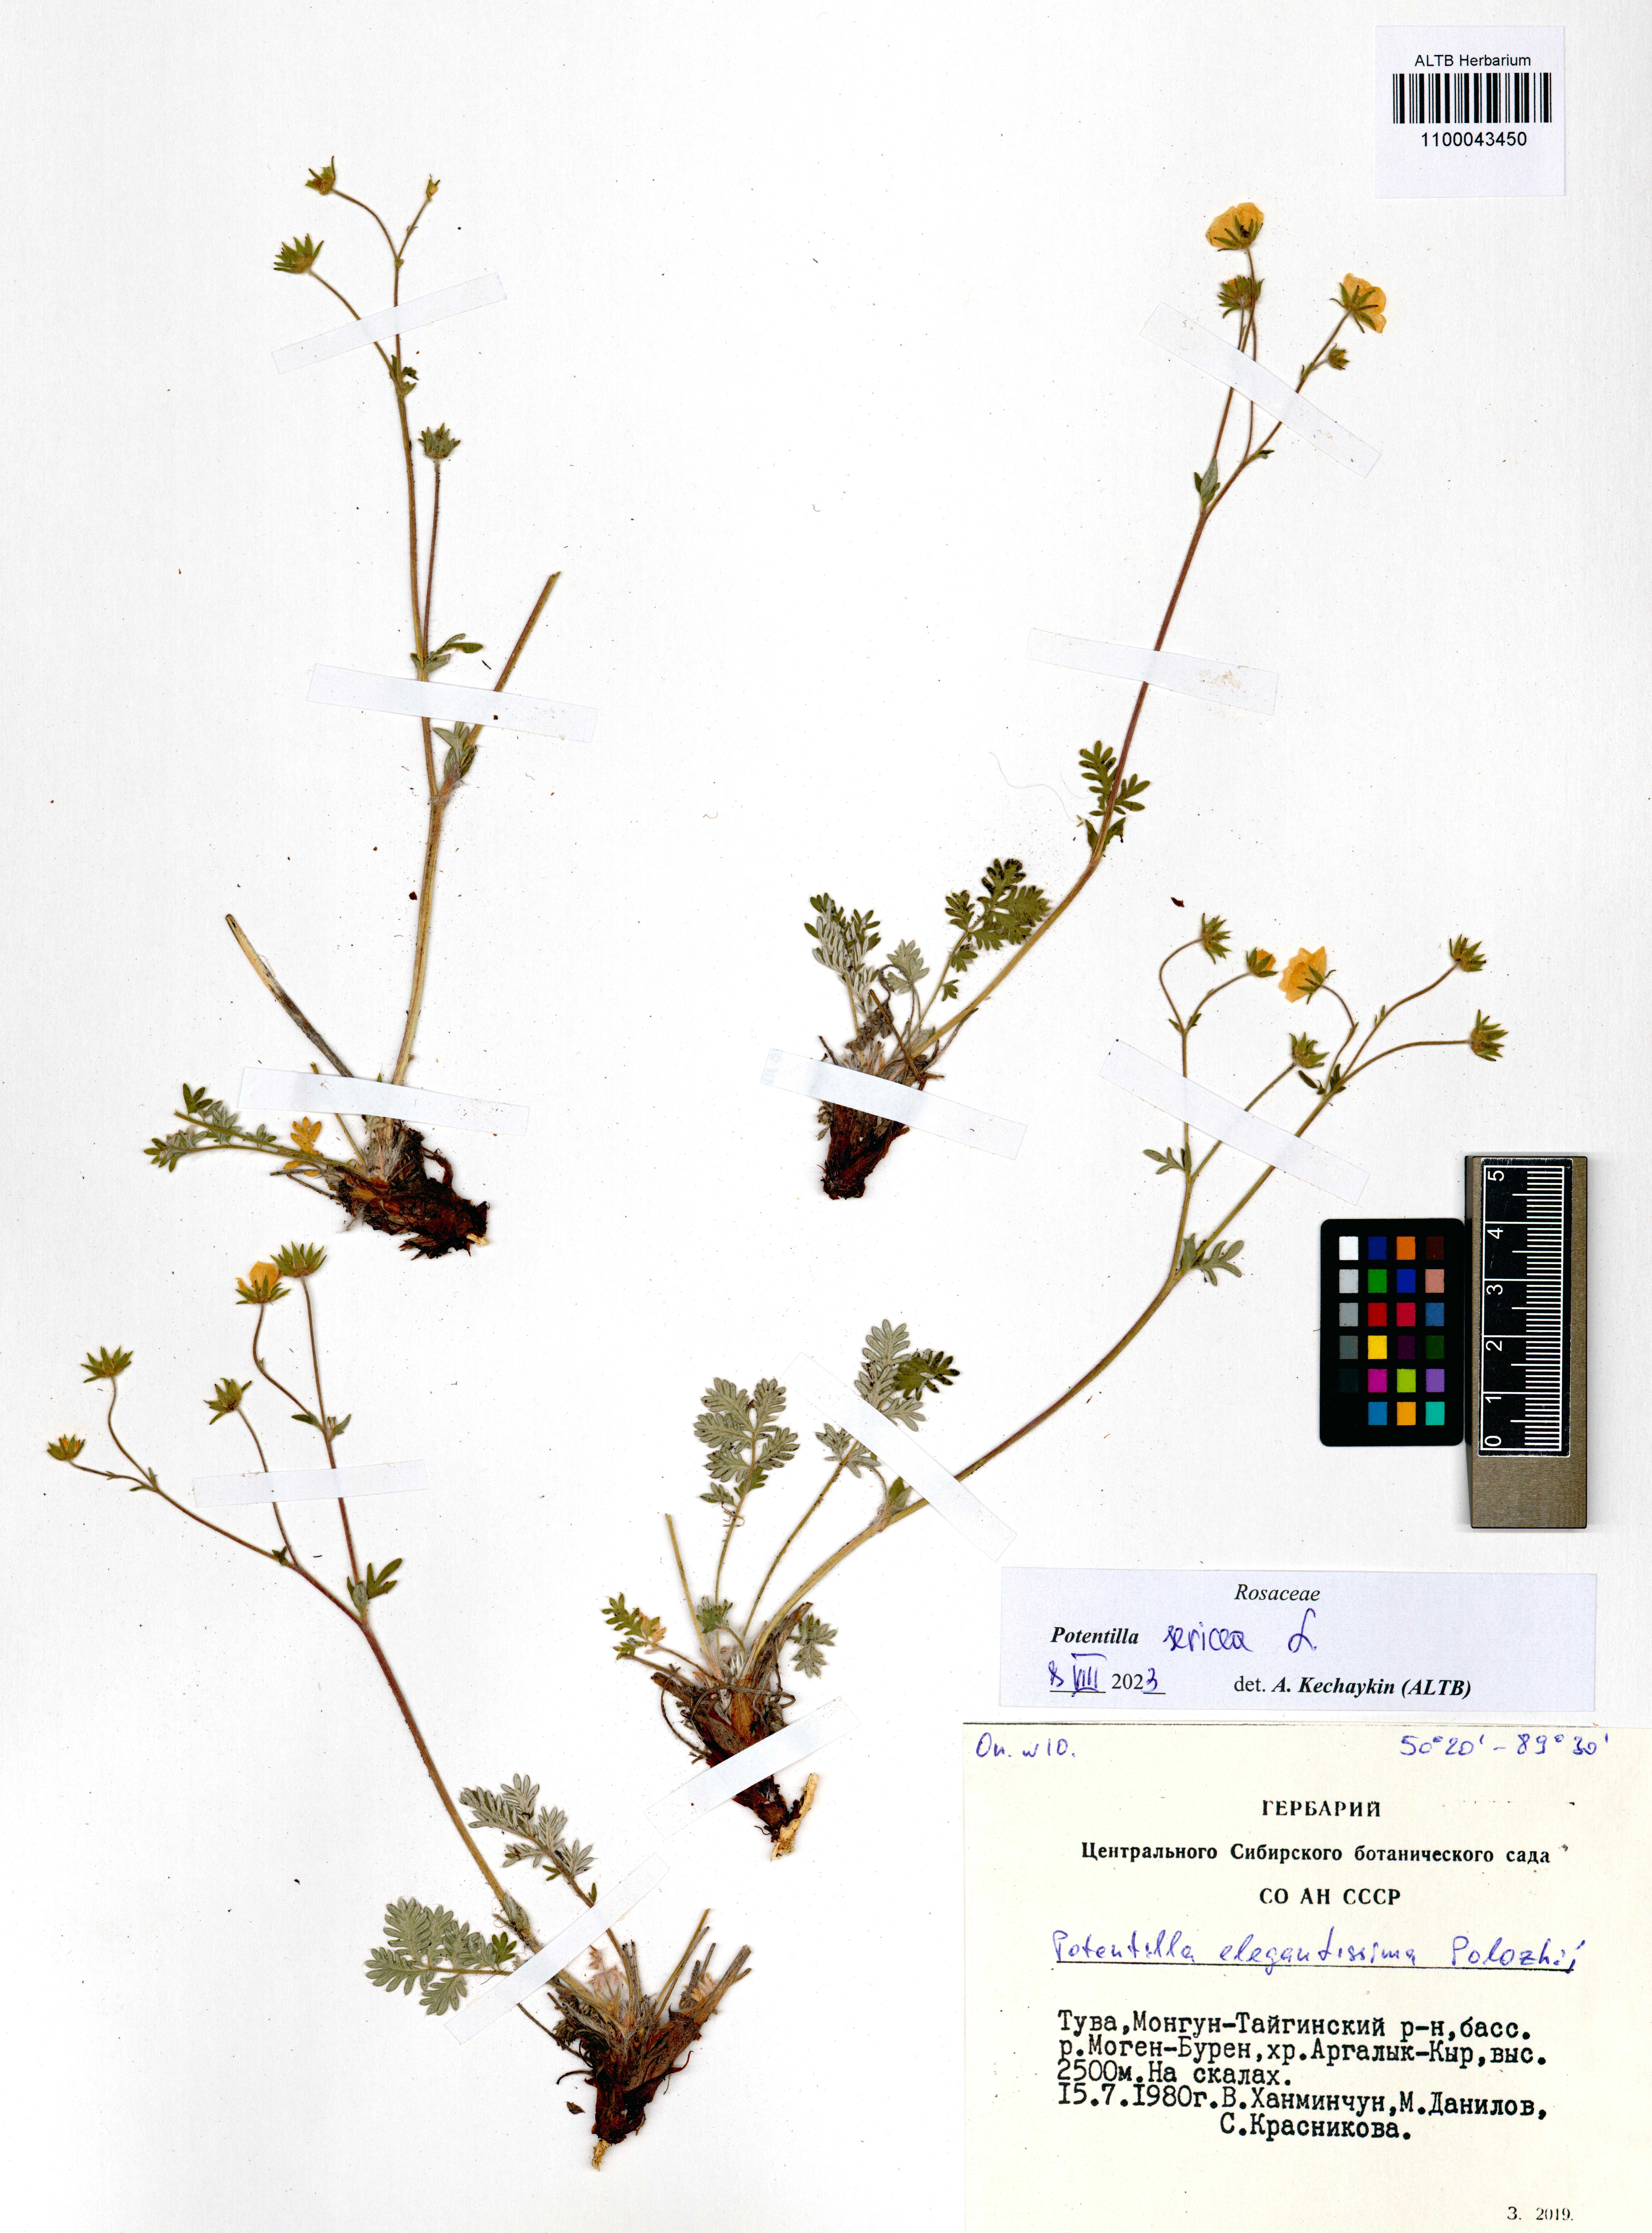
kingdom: Plantae
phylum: Tracheophyta
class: Magnoliopsida
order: Rosales
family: Rosaceae
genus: Potentilla
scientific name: Potentilla sericea
